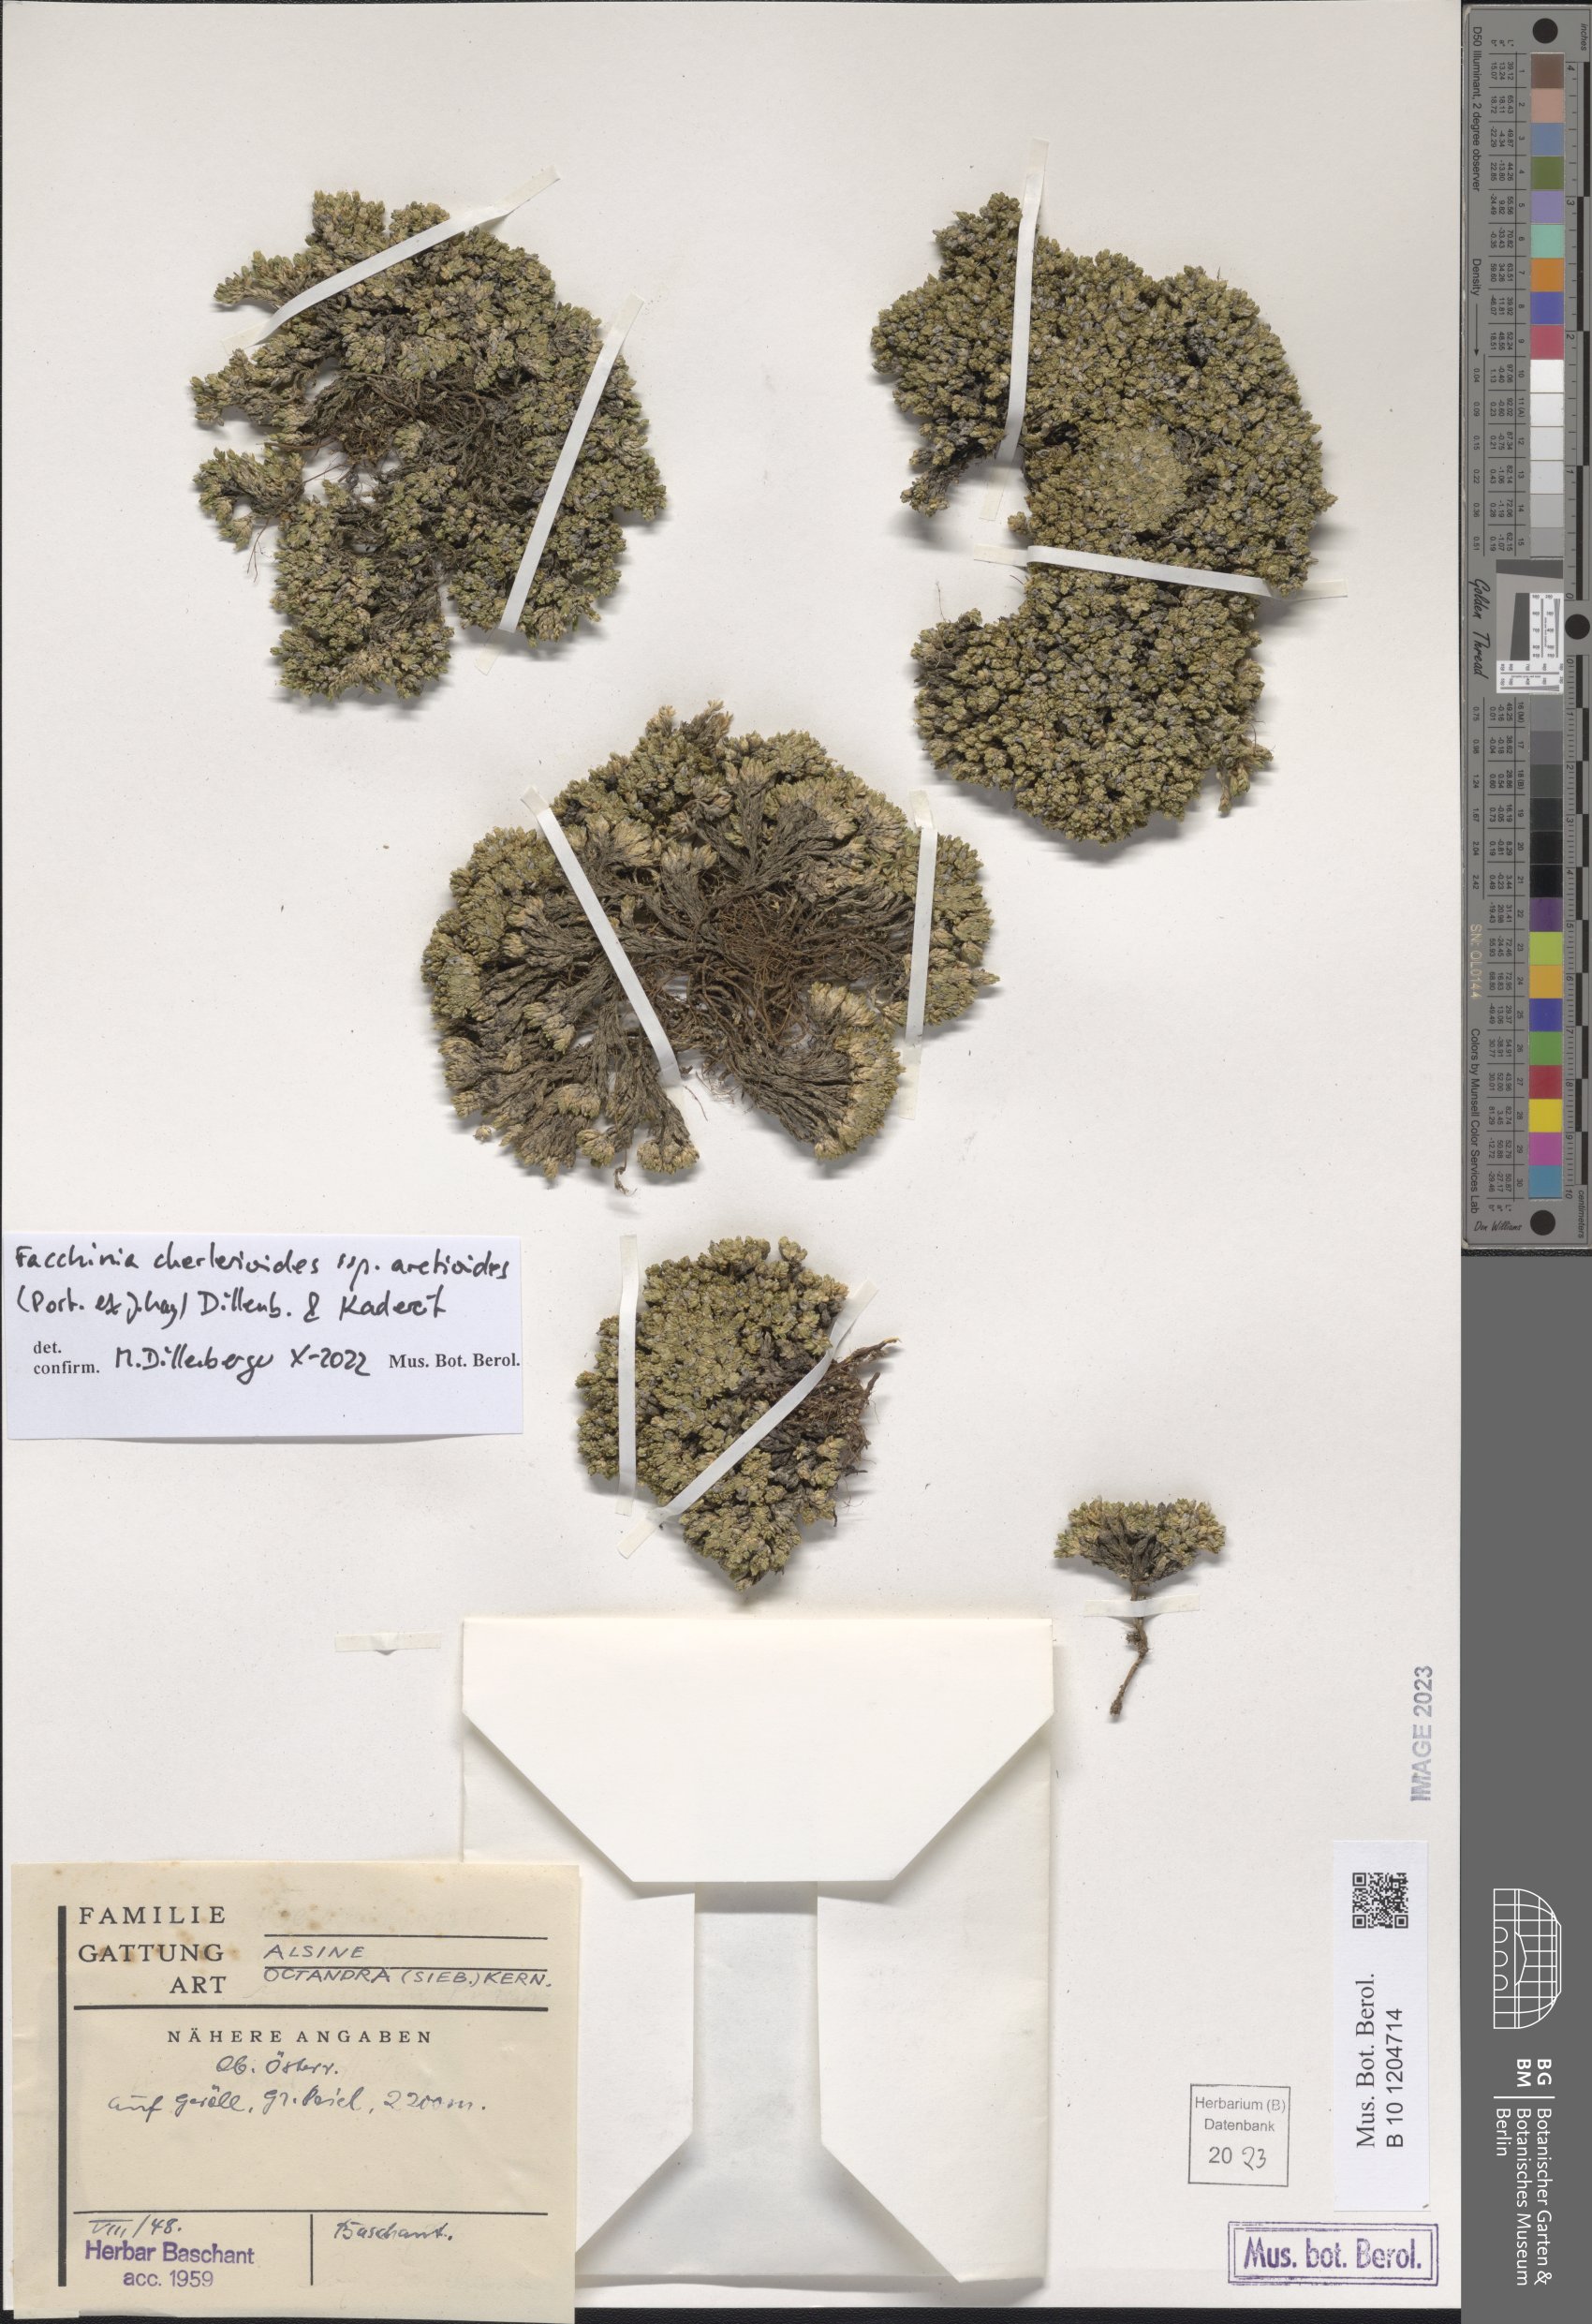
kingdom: Plantae
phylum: Tracheophyta
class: Magnoliopsida
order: Caryophyllales
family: Caryophyllaceae
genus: Facchinia
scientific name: Facchinia cherlerioides
